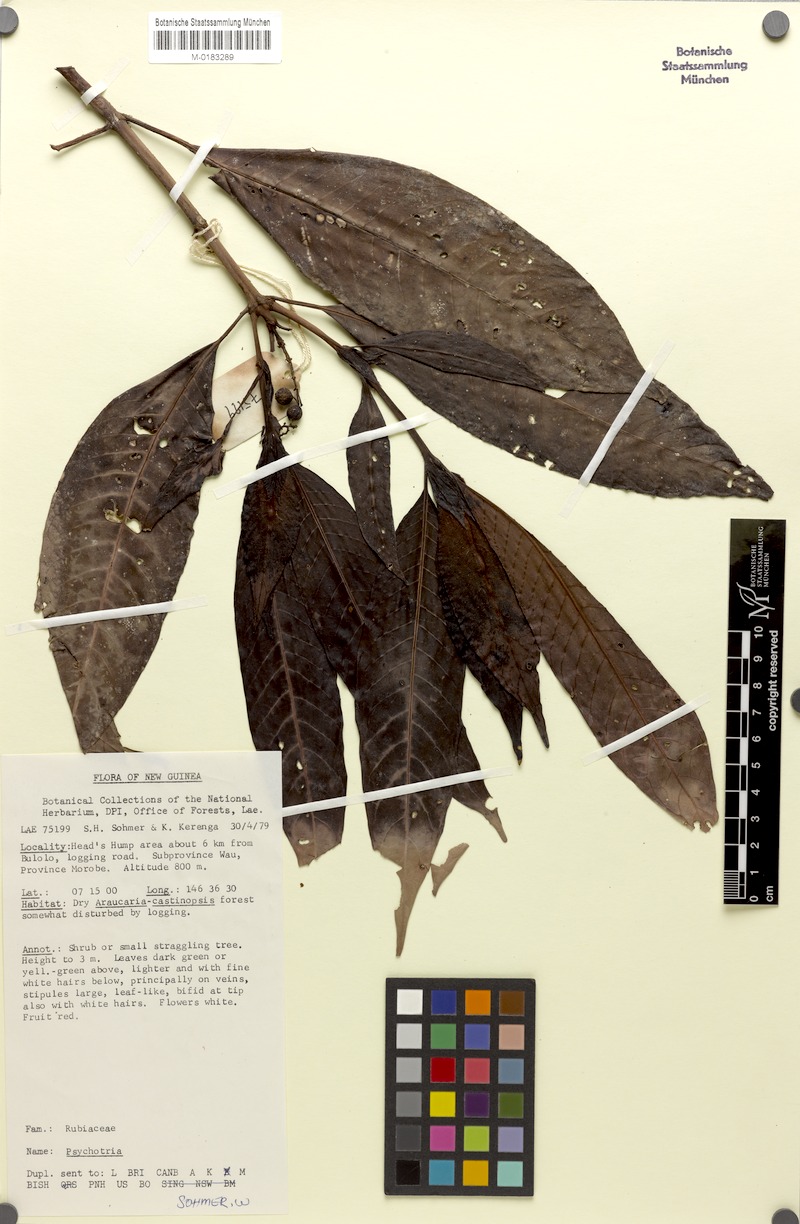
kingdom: Plantae
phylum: Tracheophyta
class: Magnoliopsida
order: Gentianales
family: Rubiaceae
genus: Psychotria
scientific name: Psychotria johnsii
